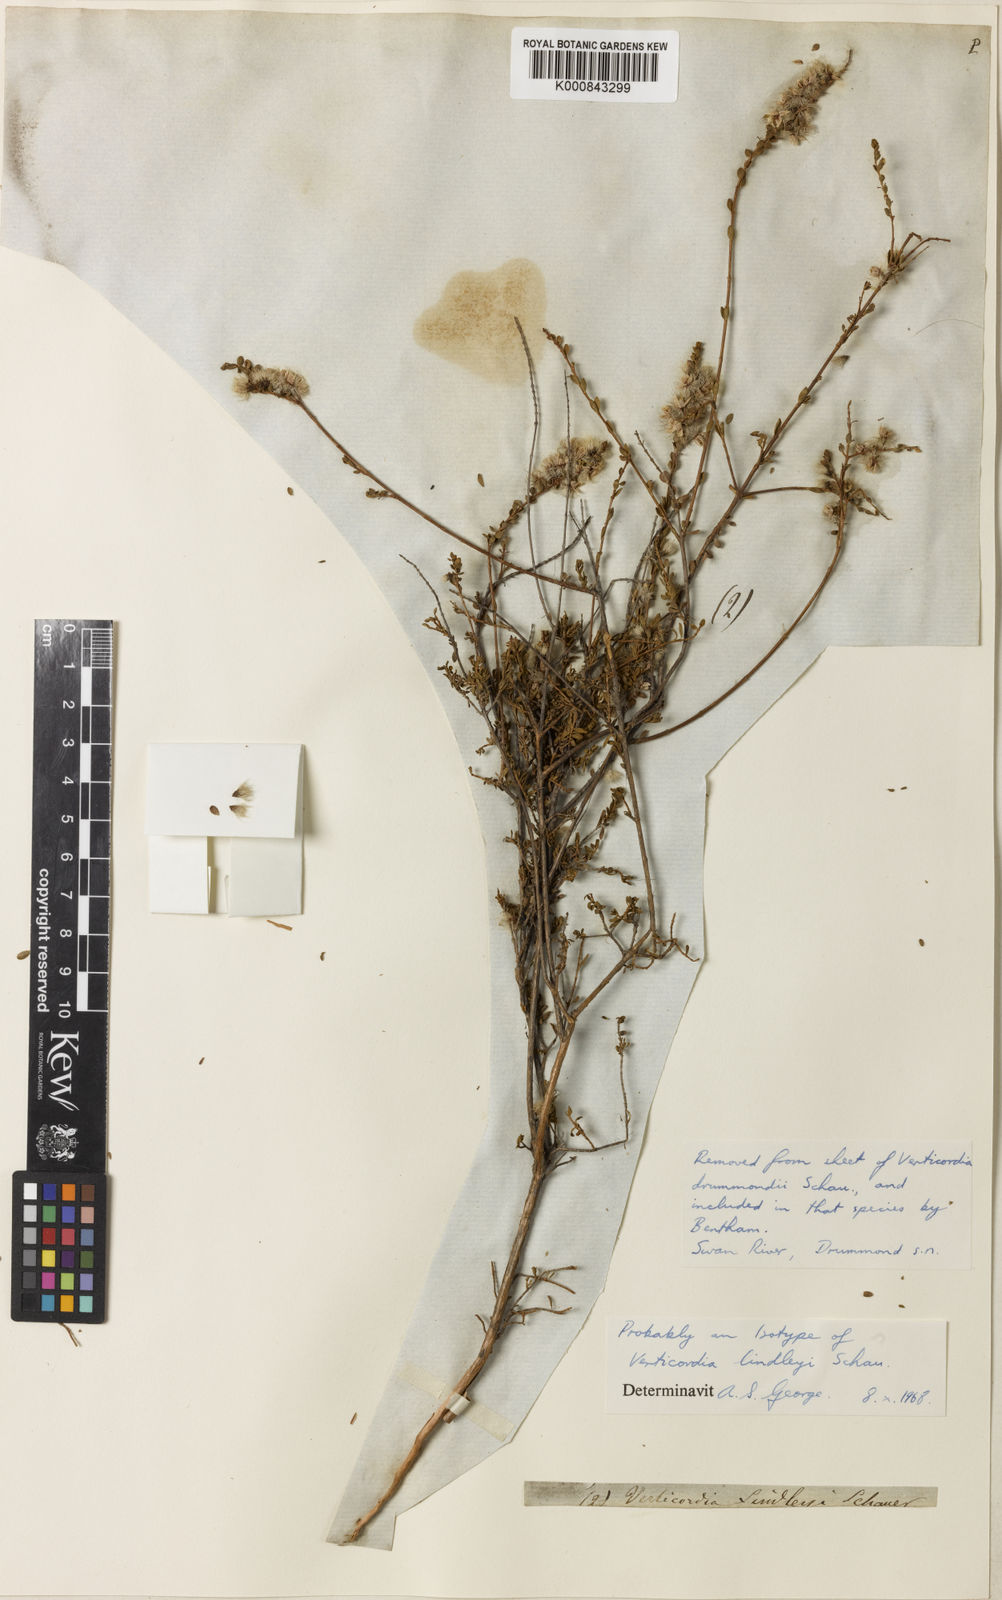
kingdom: Plantae
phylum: Tracheophyta
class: Magnoliopsida
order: Myrtales
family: Myrtaceae
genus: Verticordia
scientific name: Verticordia lindleyi
